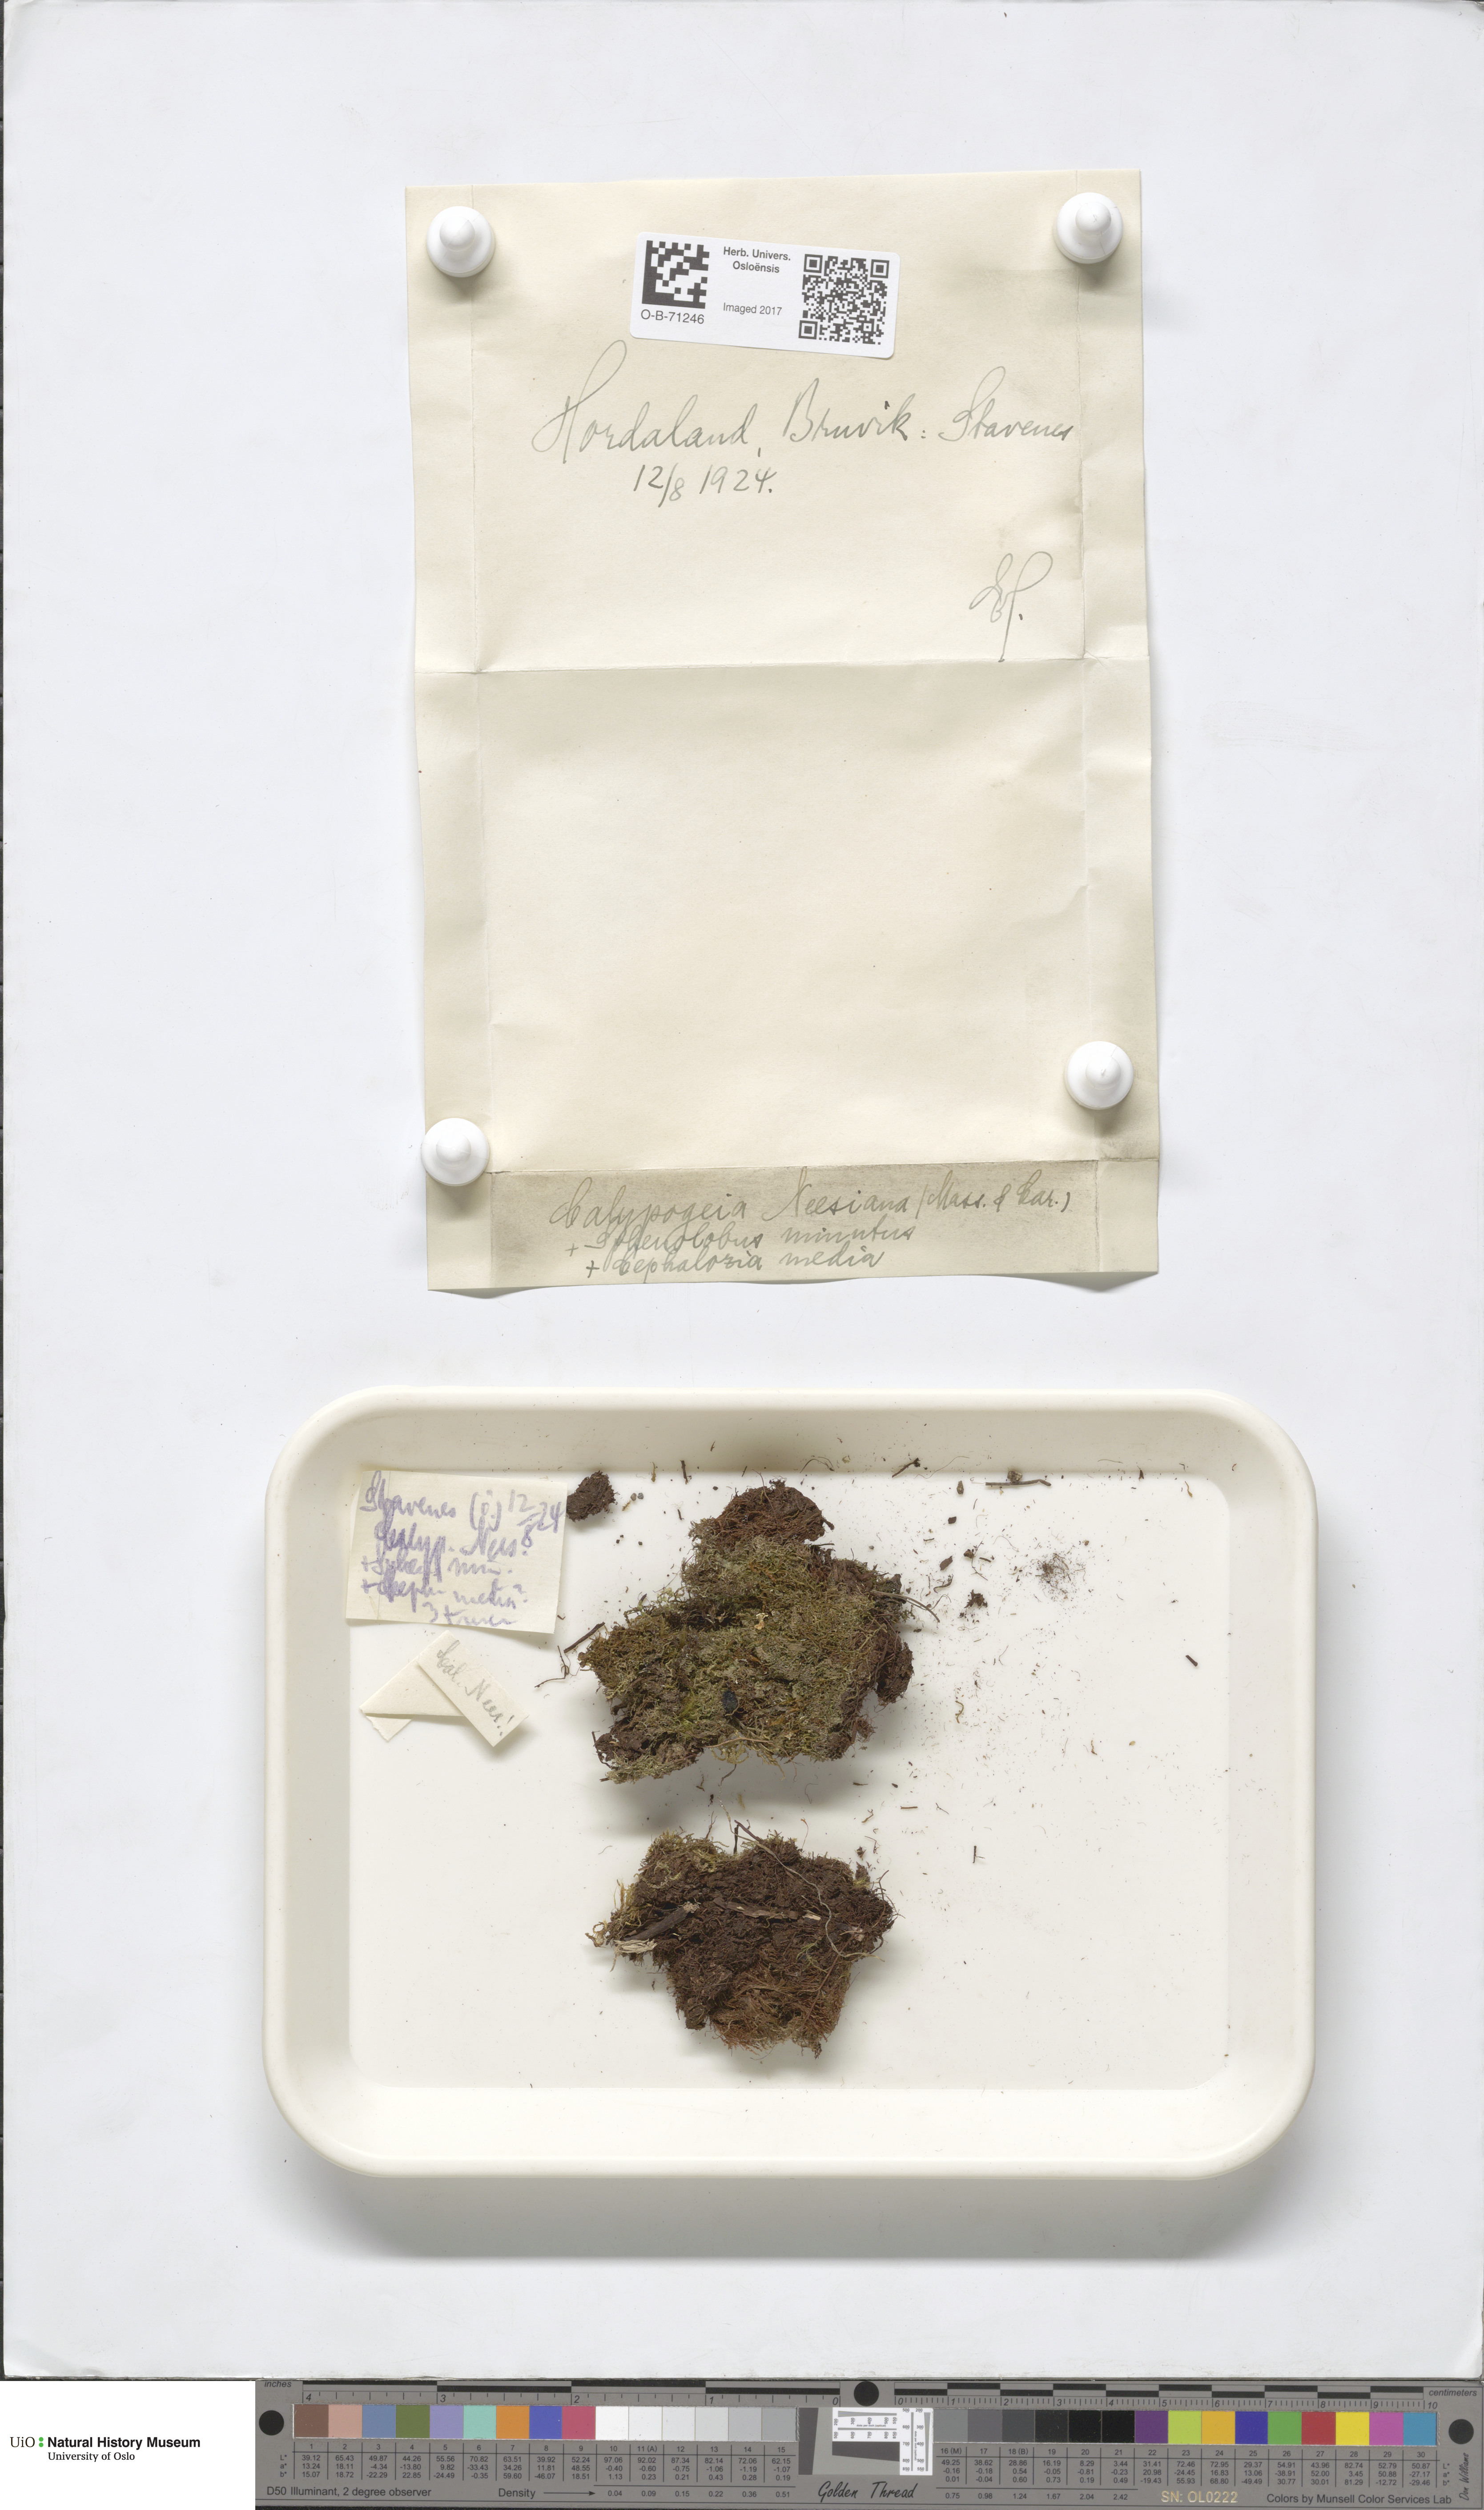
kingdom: Plantae
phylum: Marchantiophyta
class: Jungermanniopsida
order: Jungermanniales
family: Calypogeiaceae
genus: Calypogeia
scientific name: Calypogeia neesiana
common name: Nees  pouchwort
